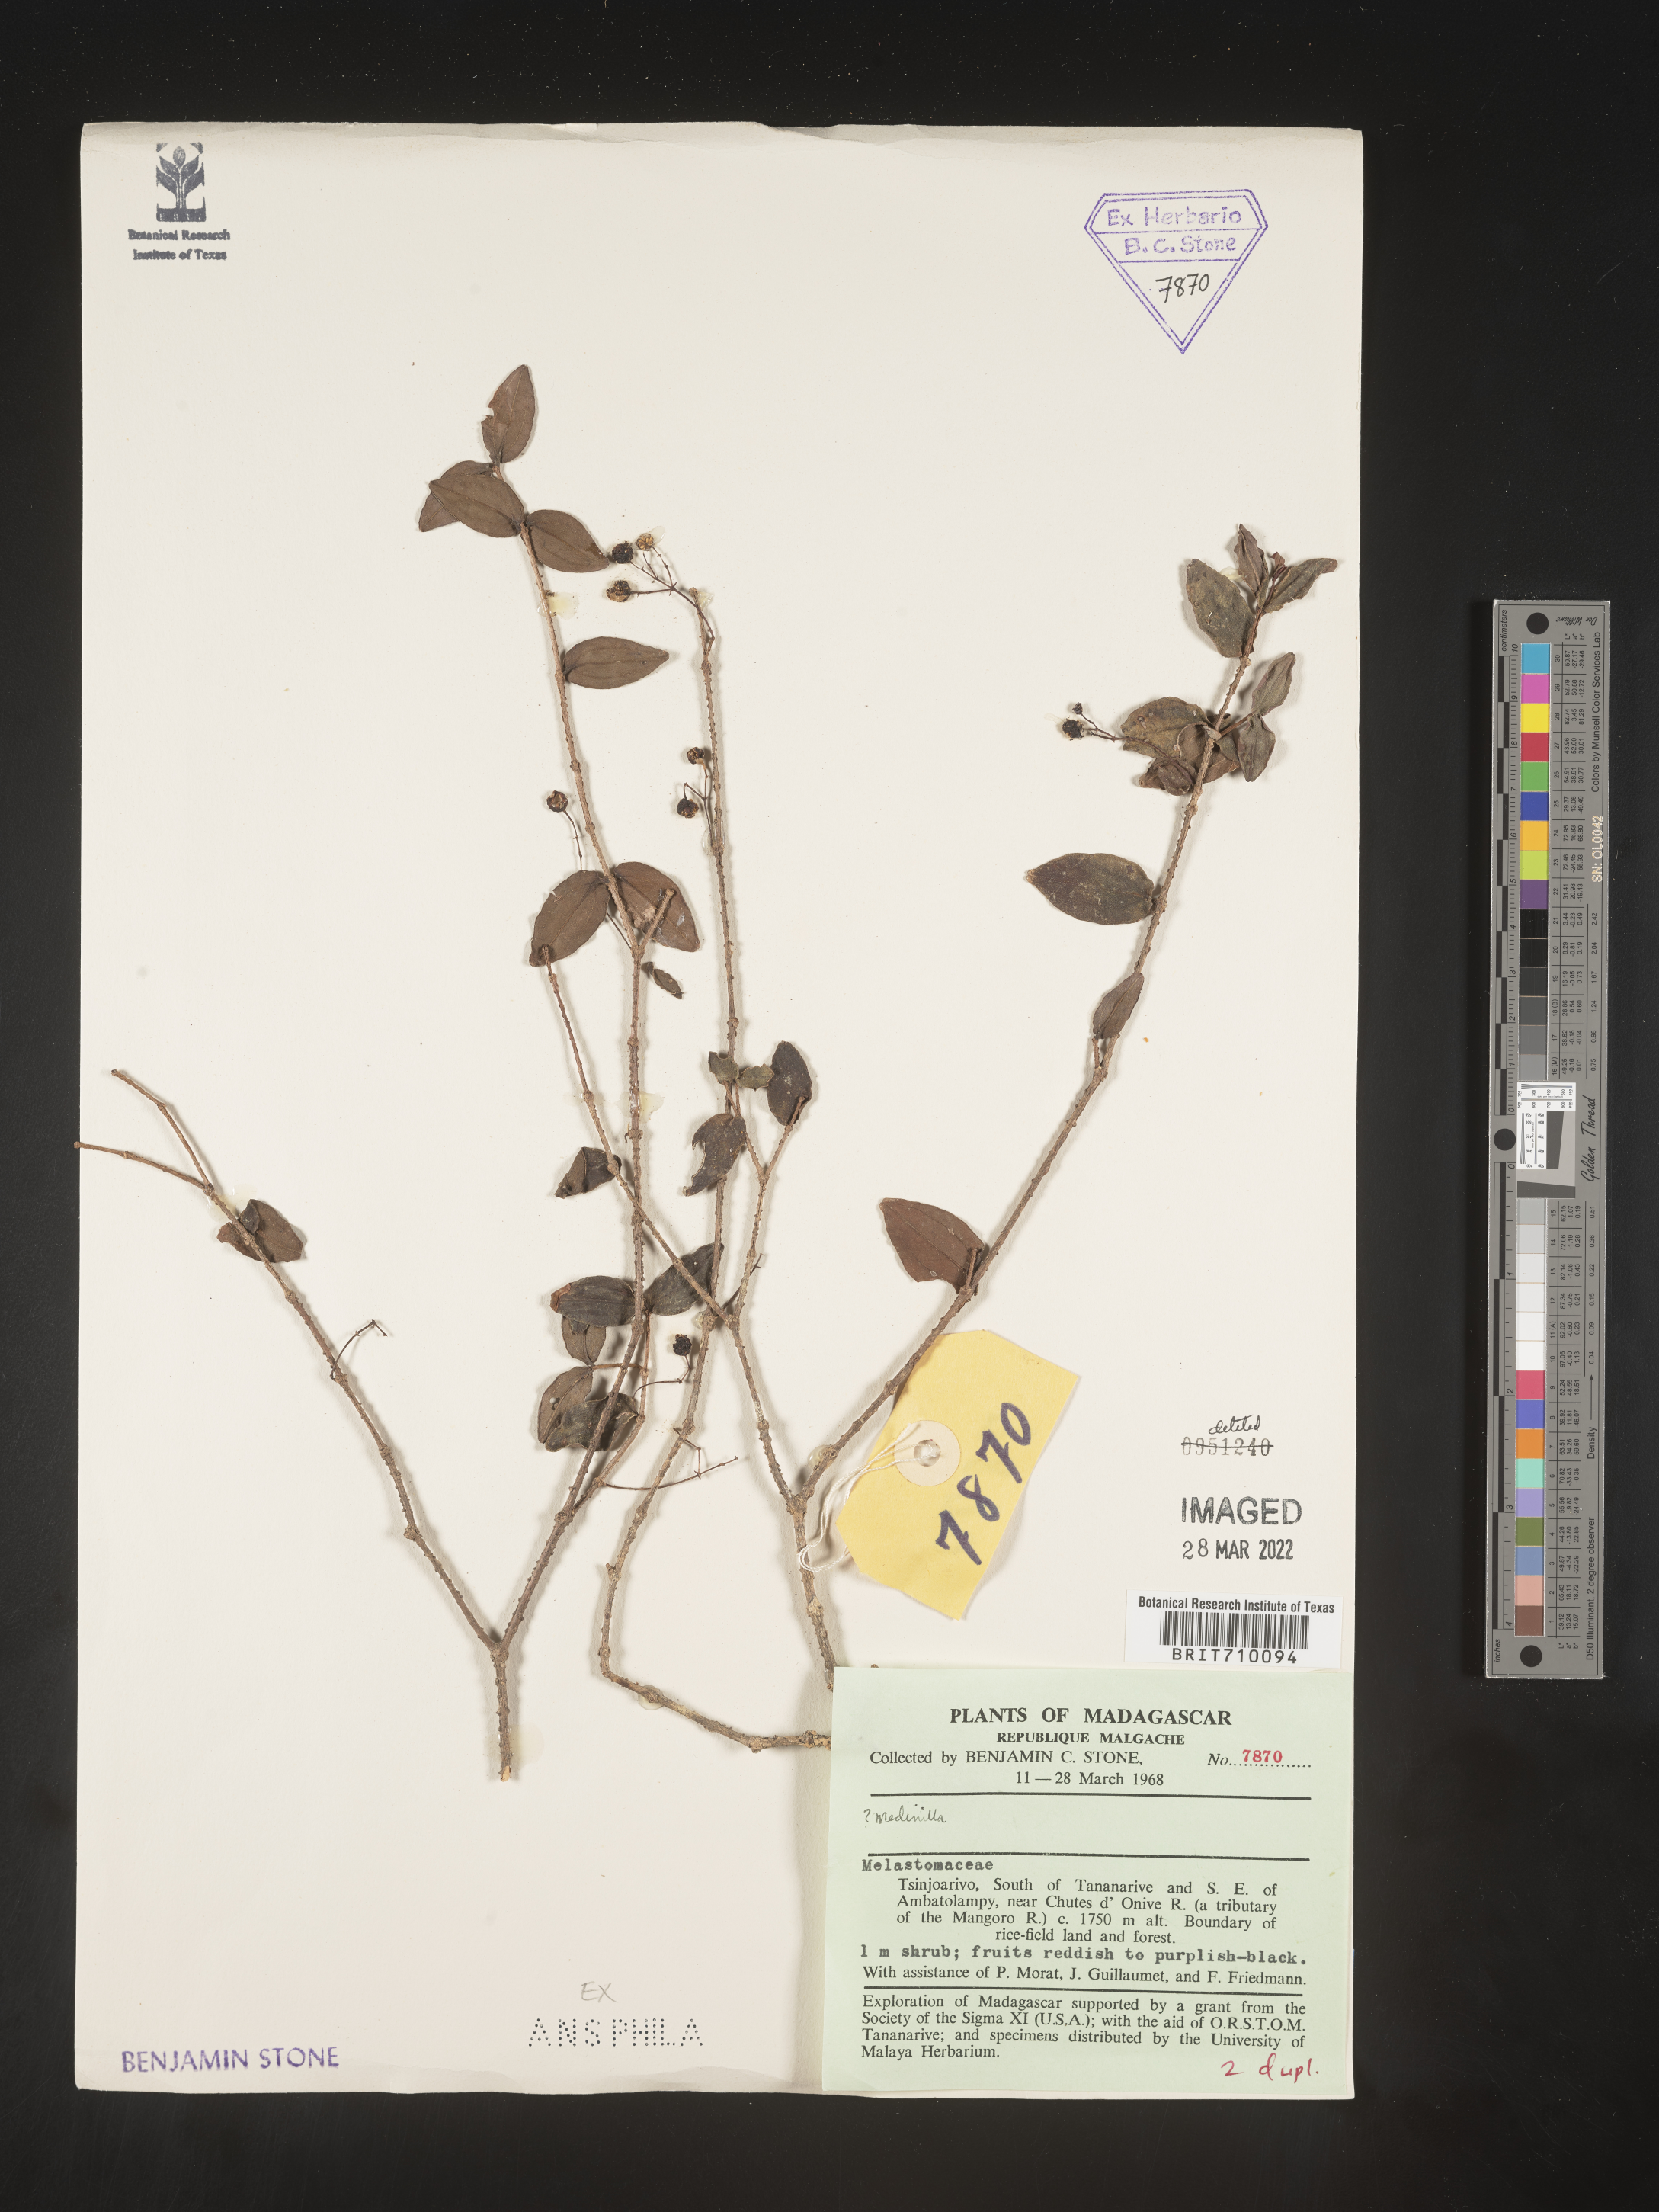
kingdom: Plantae
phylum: Tracheophyta
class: Magnoliopsida
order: Myrtales
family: Melastomataceae
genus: Medinilla
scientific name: Medinilla
